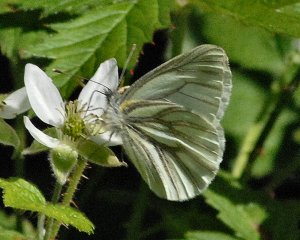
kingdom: Animalia
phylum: Arthropoda
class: Insecta
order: Lepidoptera
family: Pieridae
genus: Pieris
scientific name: Pieris marginalis
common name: Margined White
